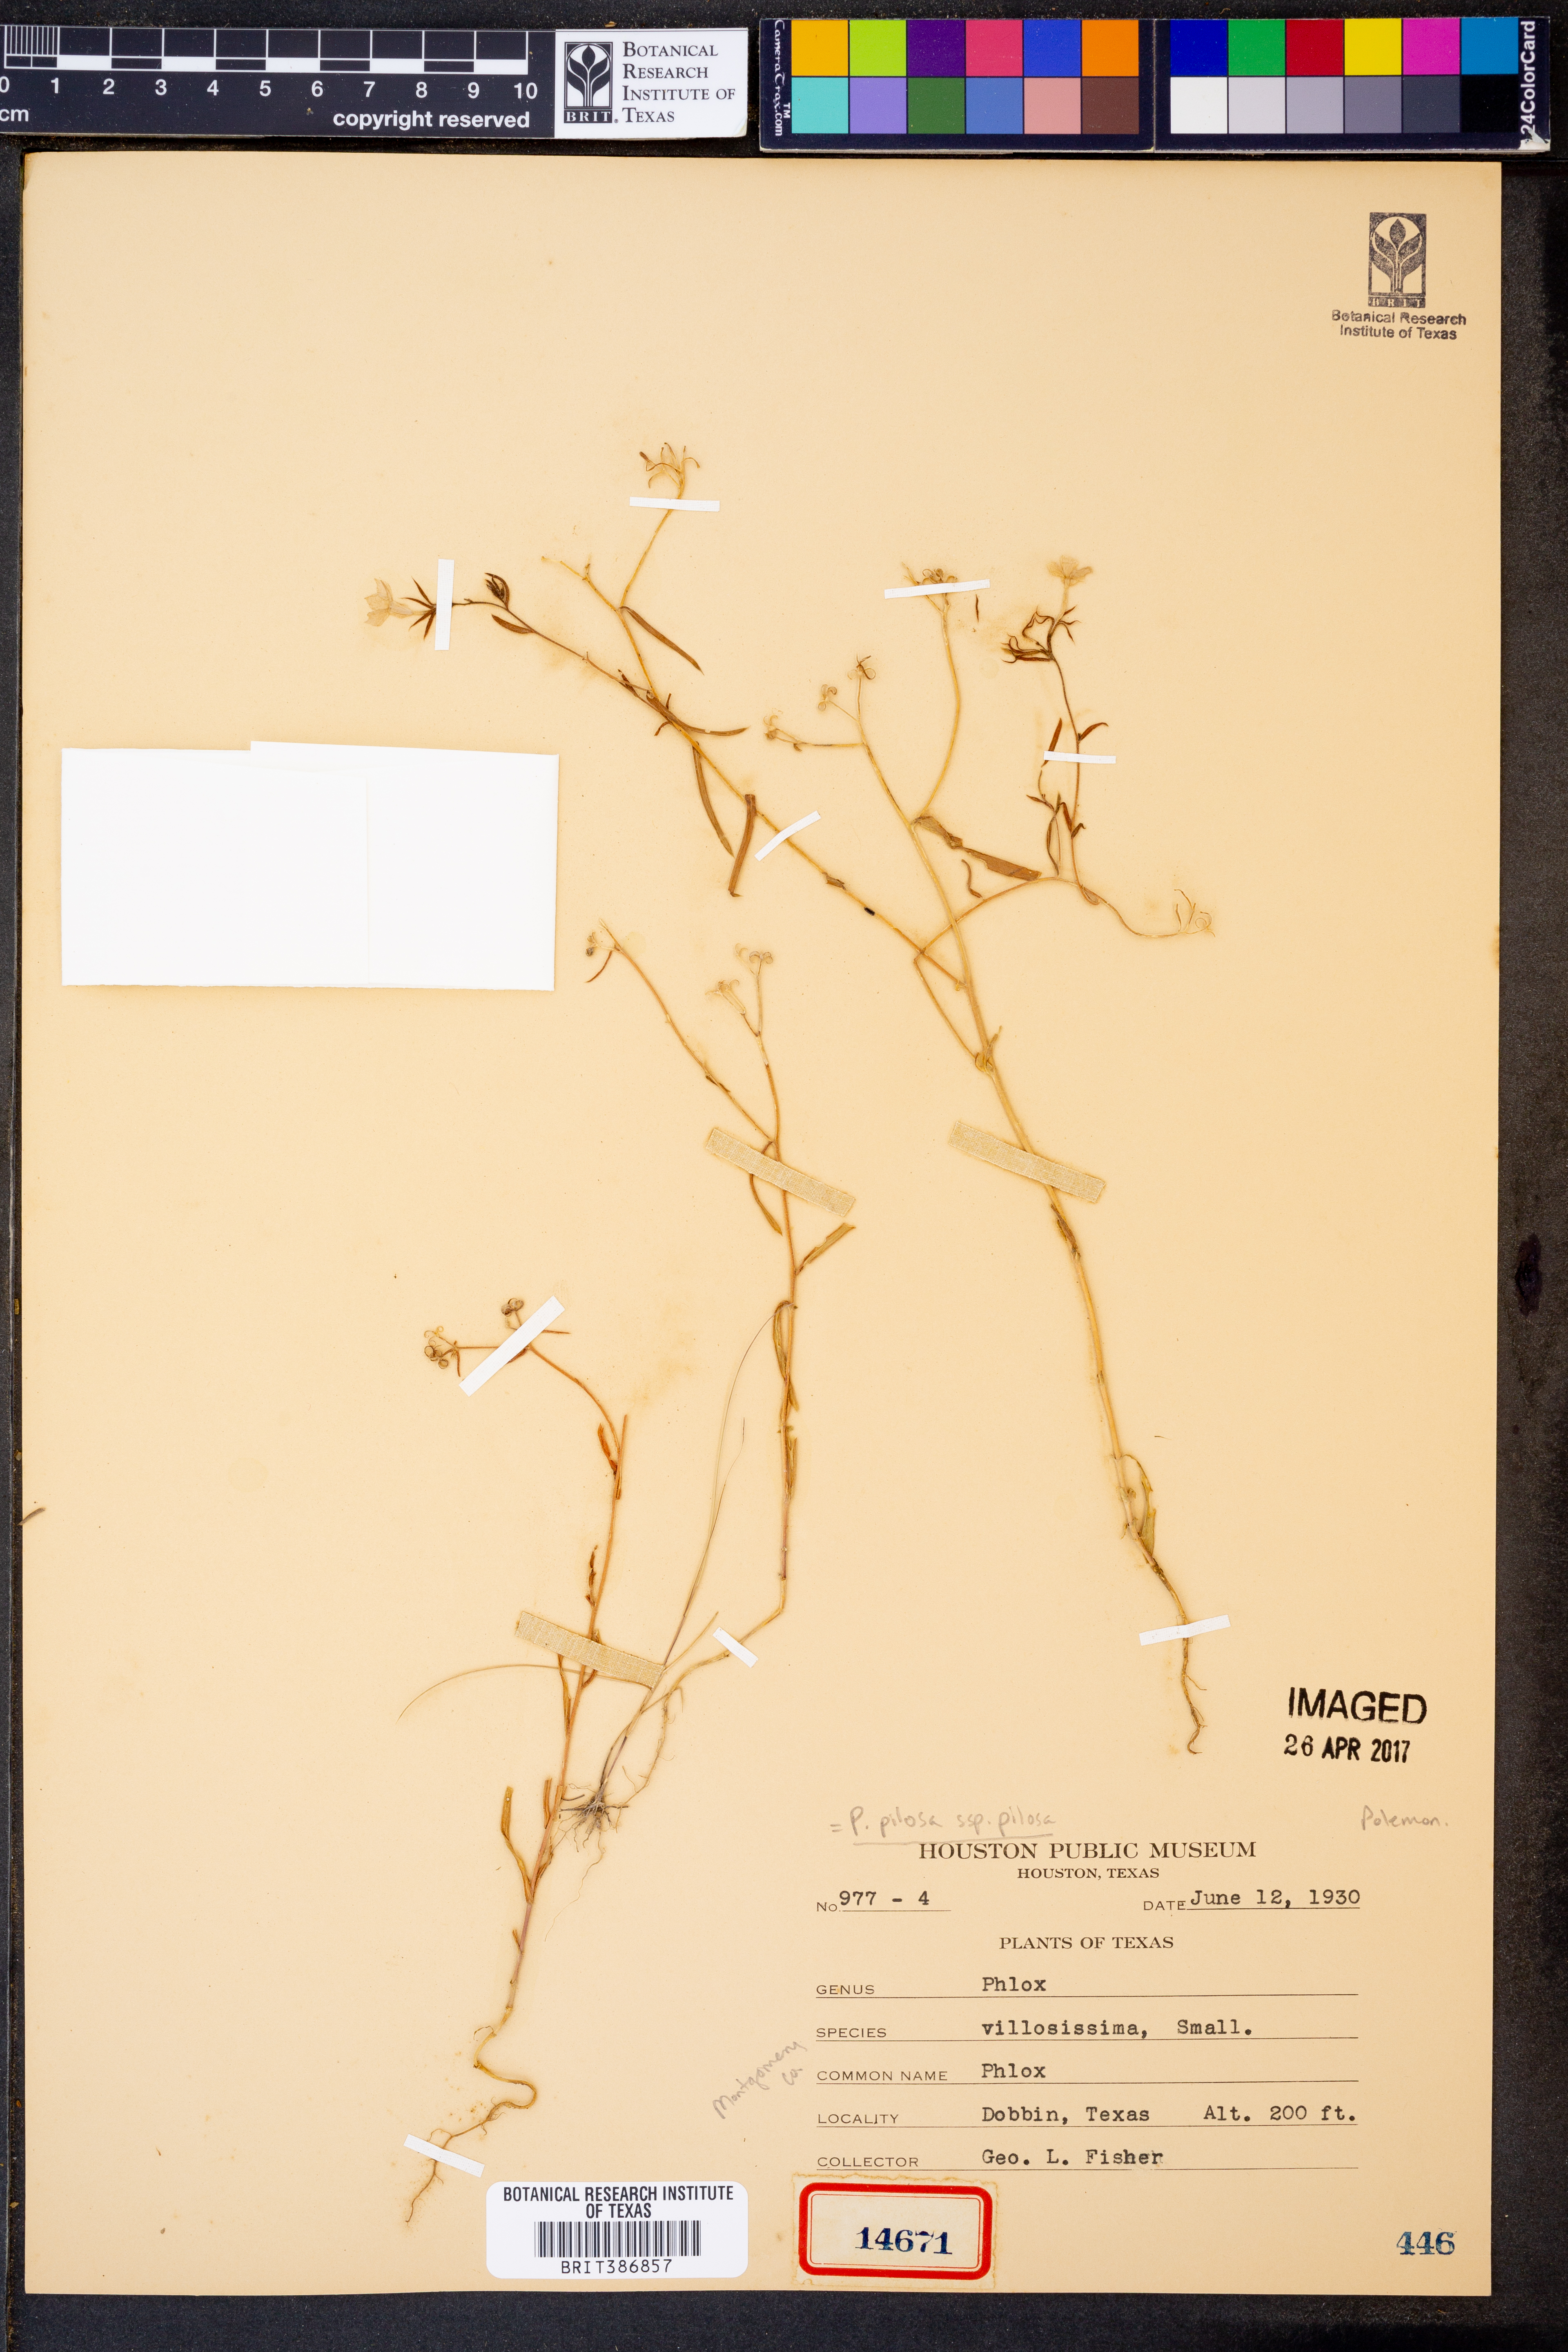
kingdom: Plantae
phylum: Tracheophyta
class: Magnoliopsida
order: Ericales
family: Polemoniaceae
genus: Phlox
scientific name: Phlox pilosa
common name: Prairie phlox
